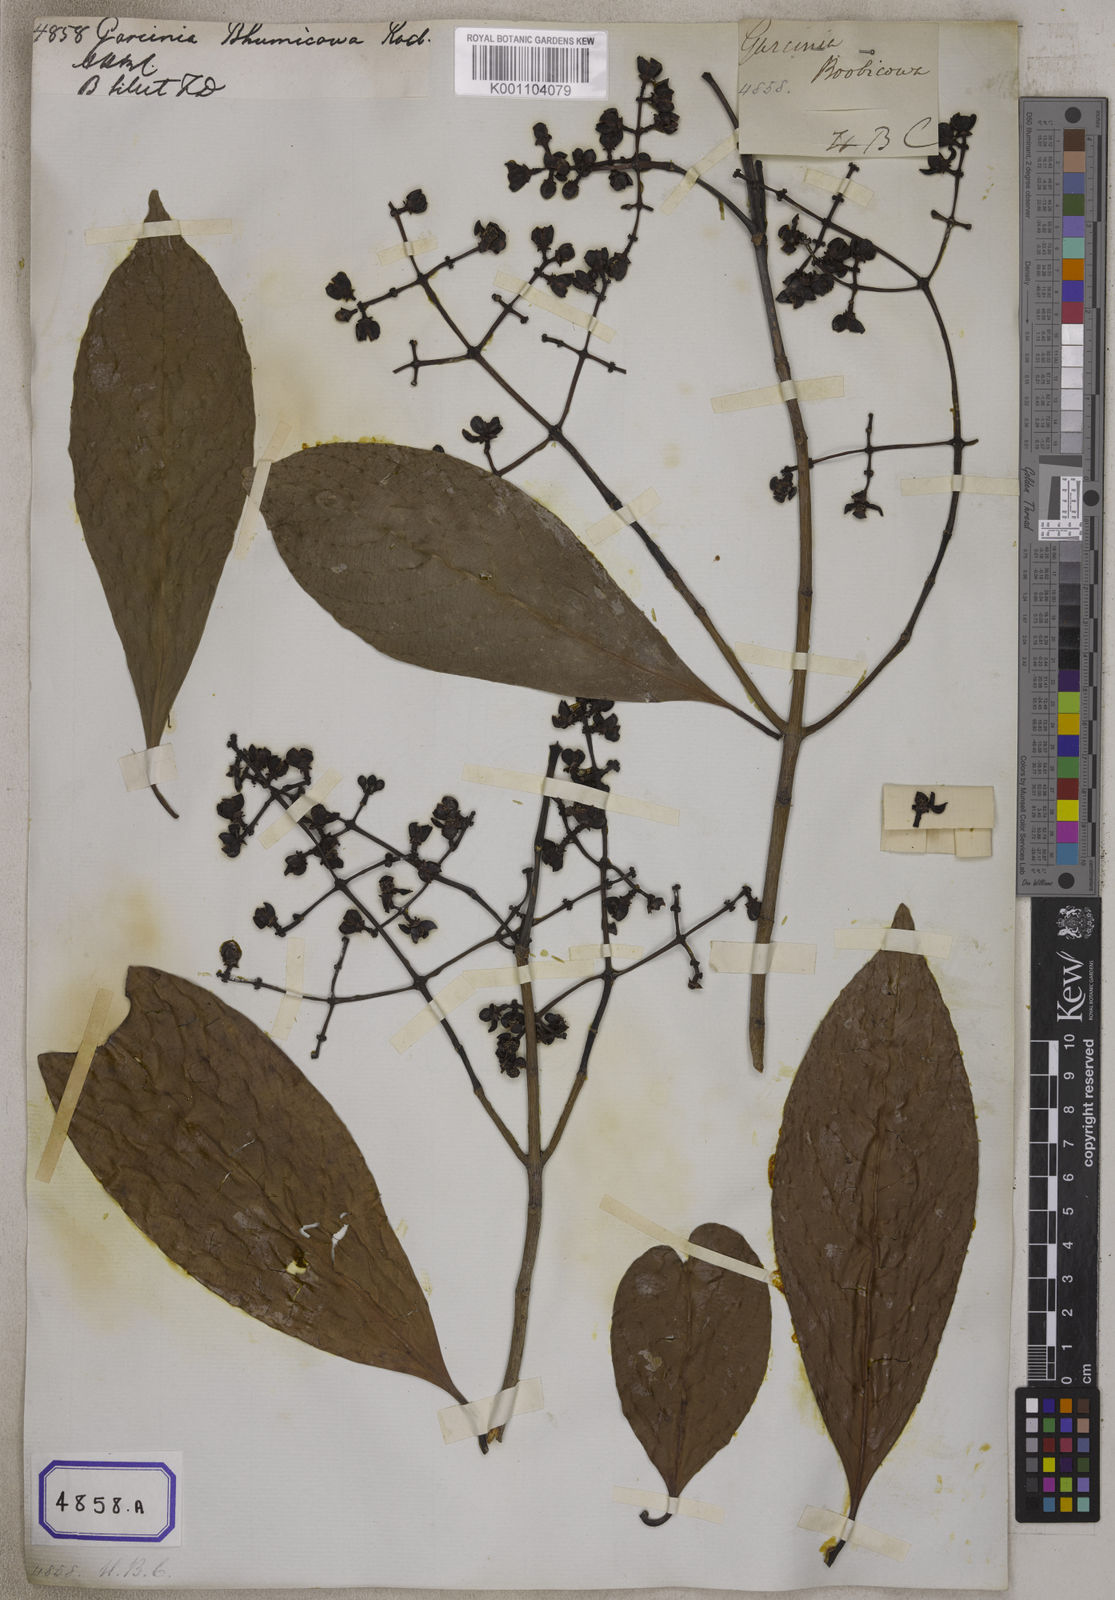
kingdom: Plantae
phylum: Tracheophyta
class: Magnoliopsida
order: Malpighiales
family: Clusiaceae
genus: Garcinia
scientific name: Garcinia
